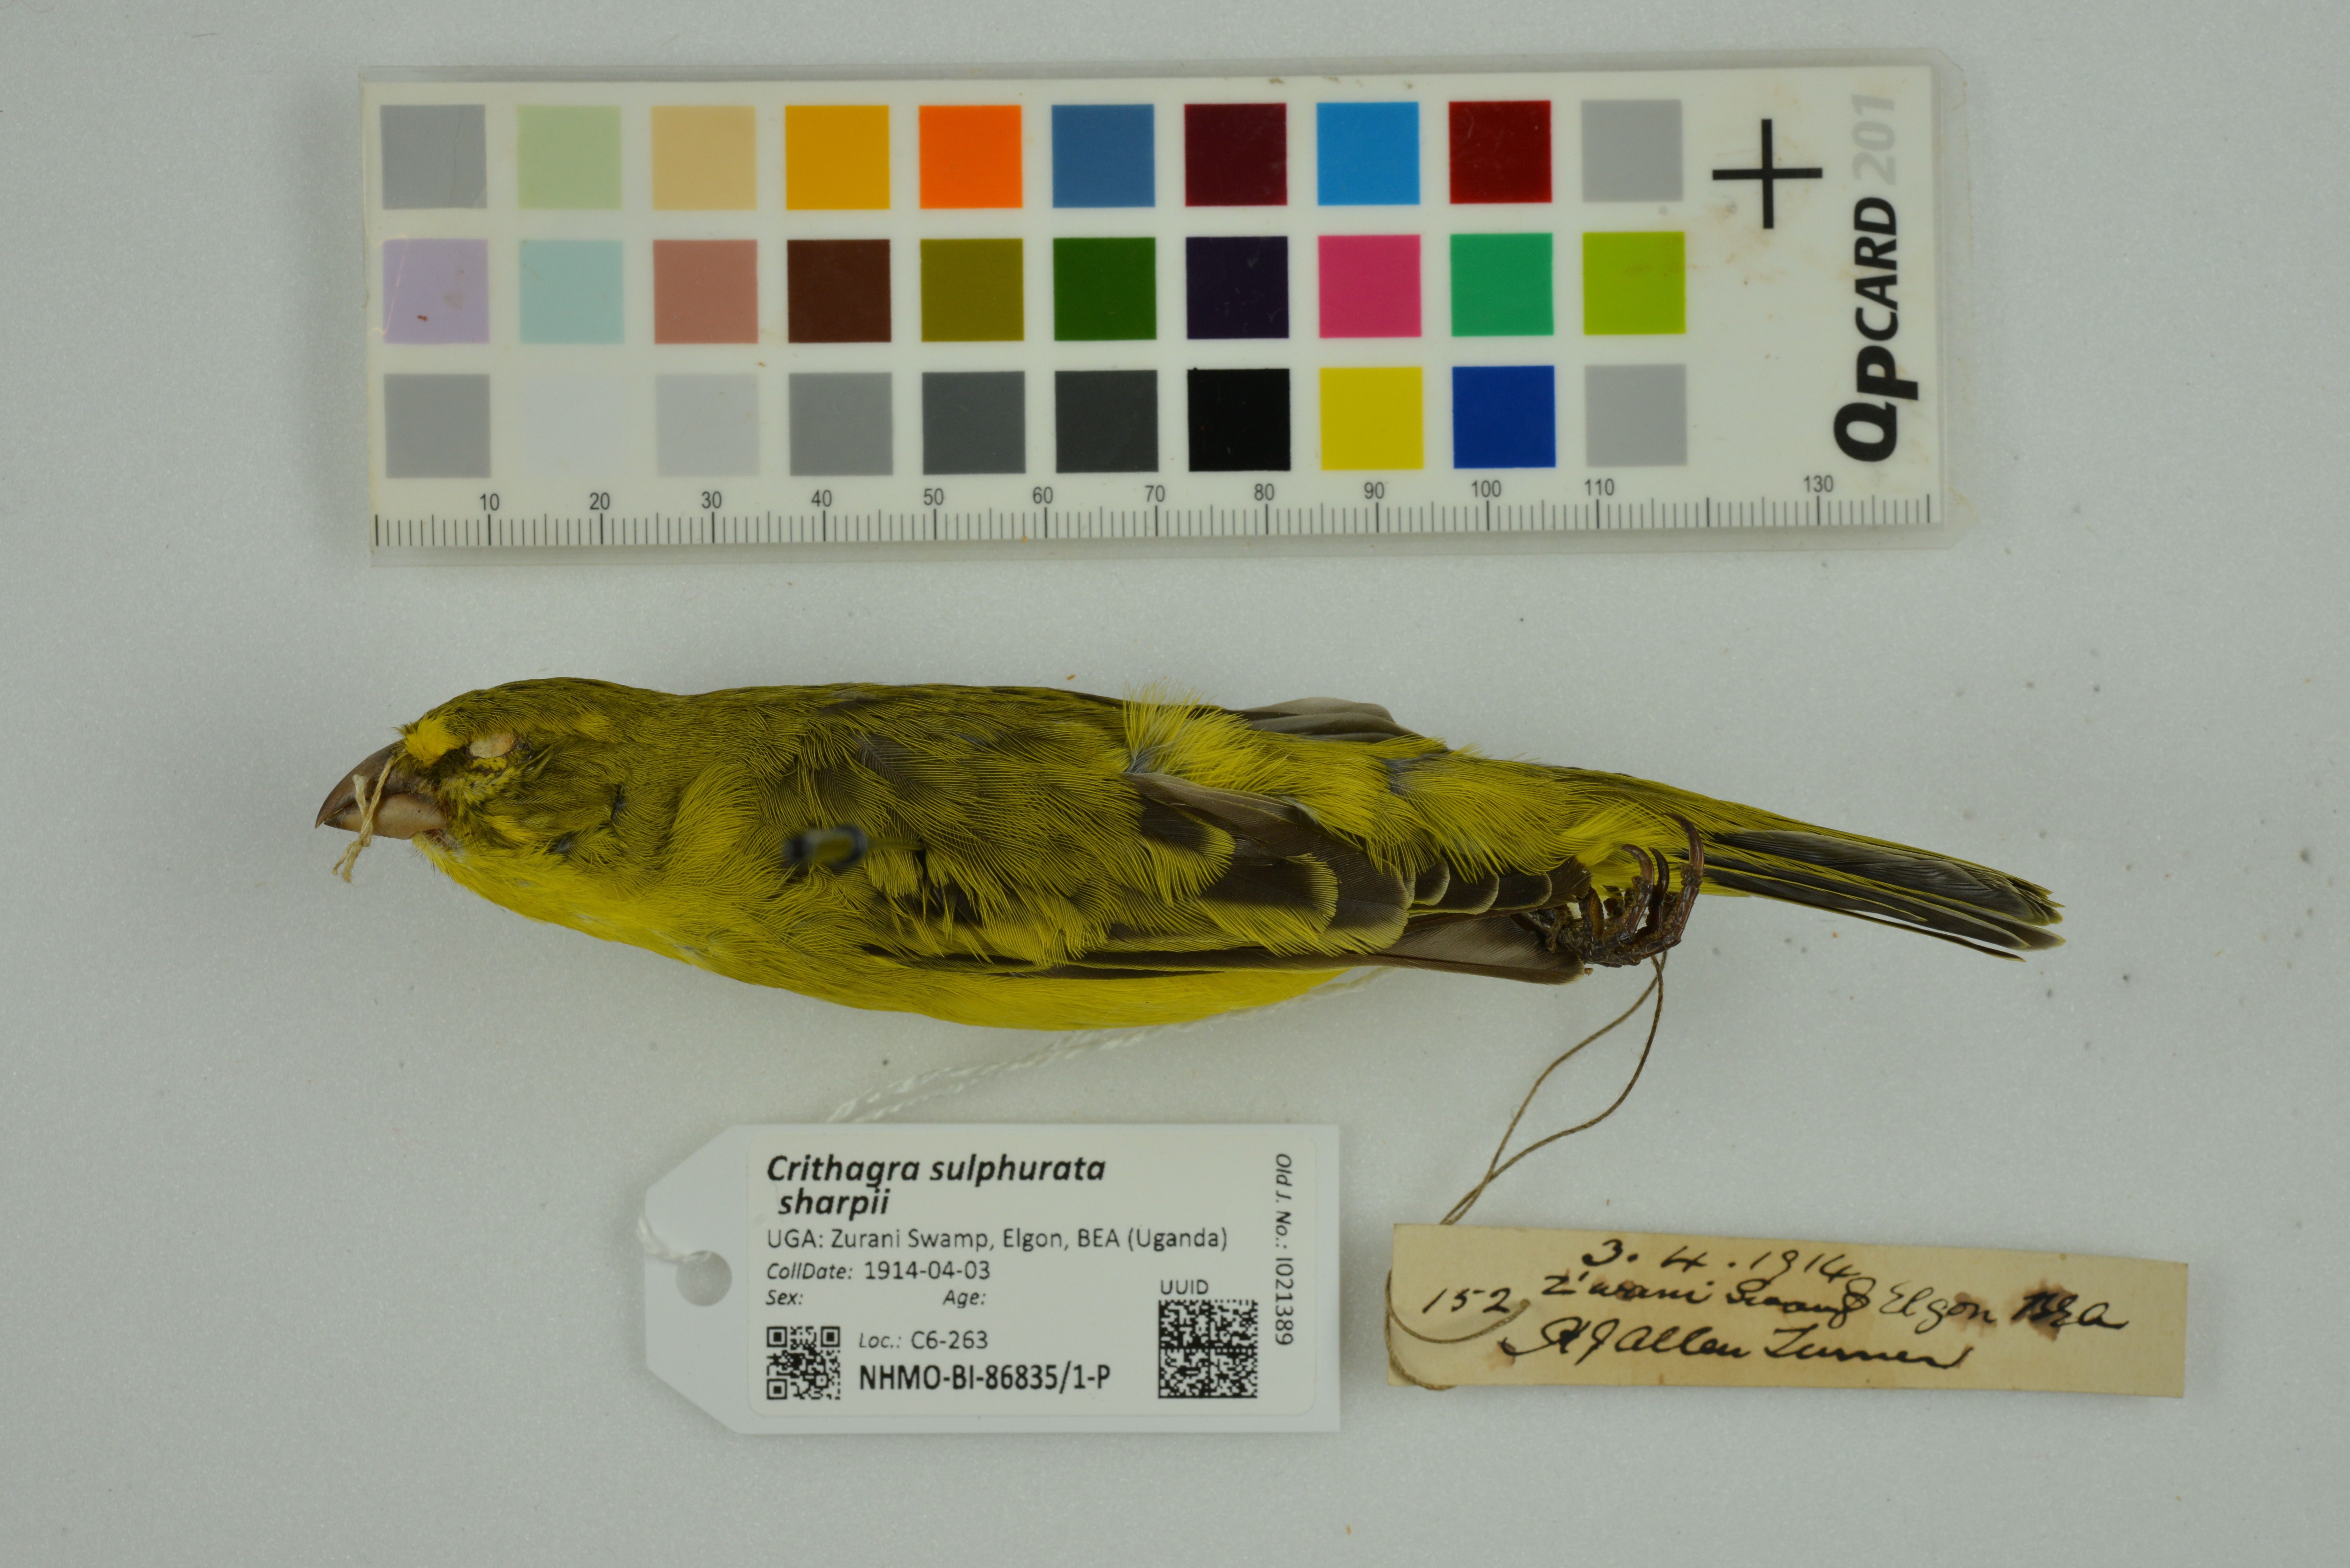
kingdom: Animalia
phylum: Chordata
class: Aves
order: Passeriformes
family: Fringillidae
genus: Crithagra
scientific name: Crithagra sulphurata
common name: Brimstone canary
